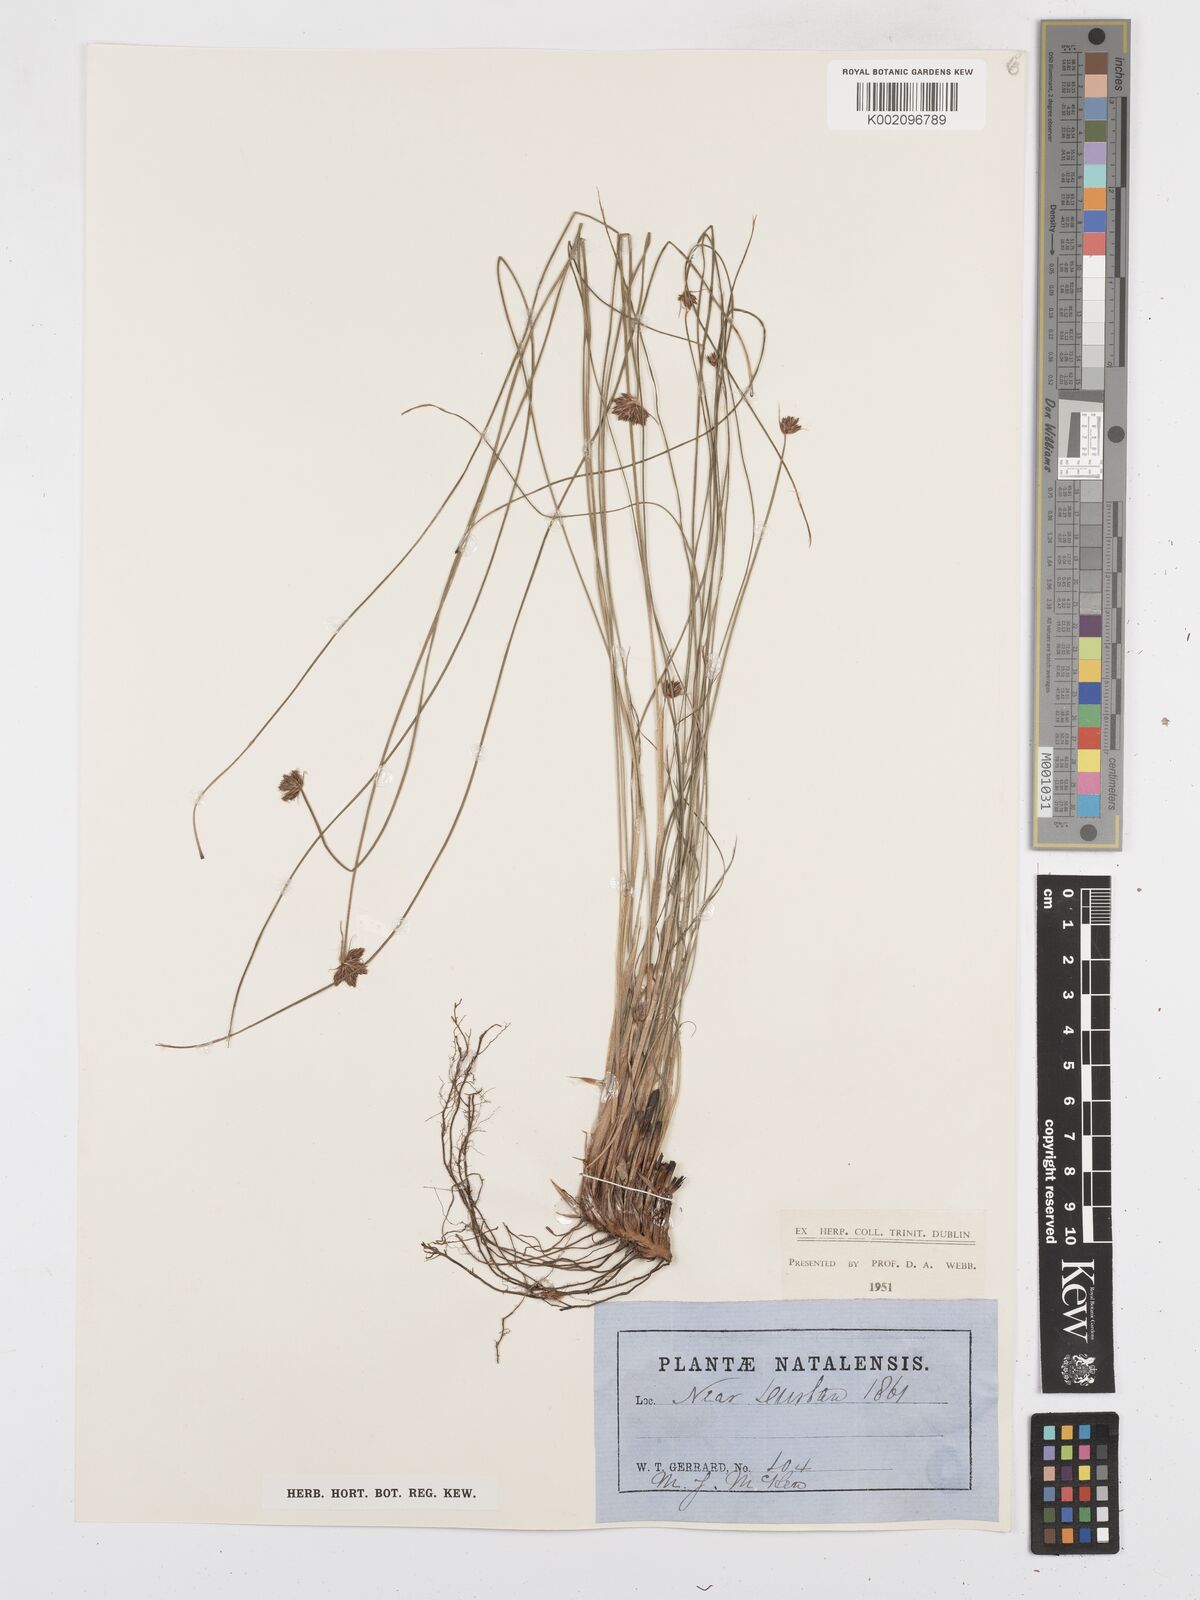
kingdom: Plantae
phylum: Tracheophyta
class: Liliopsida
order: Poales
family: Cyperaceae
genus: Bulbostylis
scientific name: Bulbostylis
